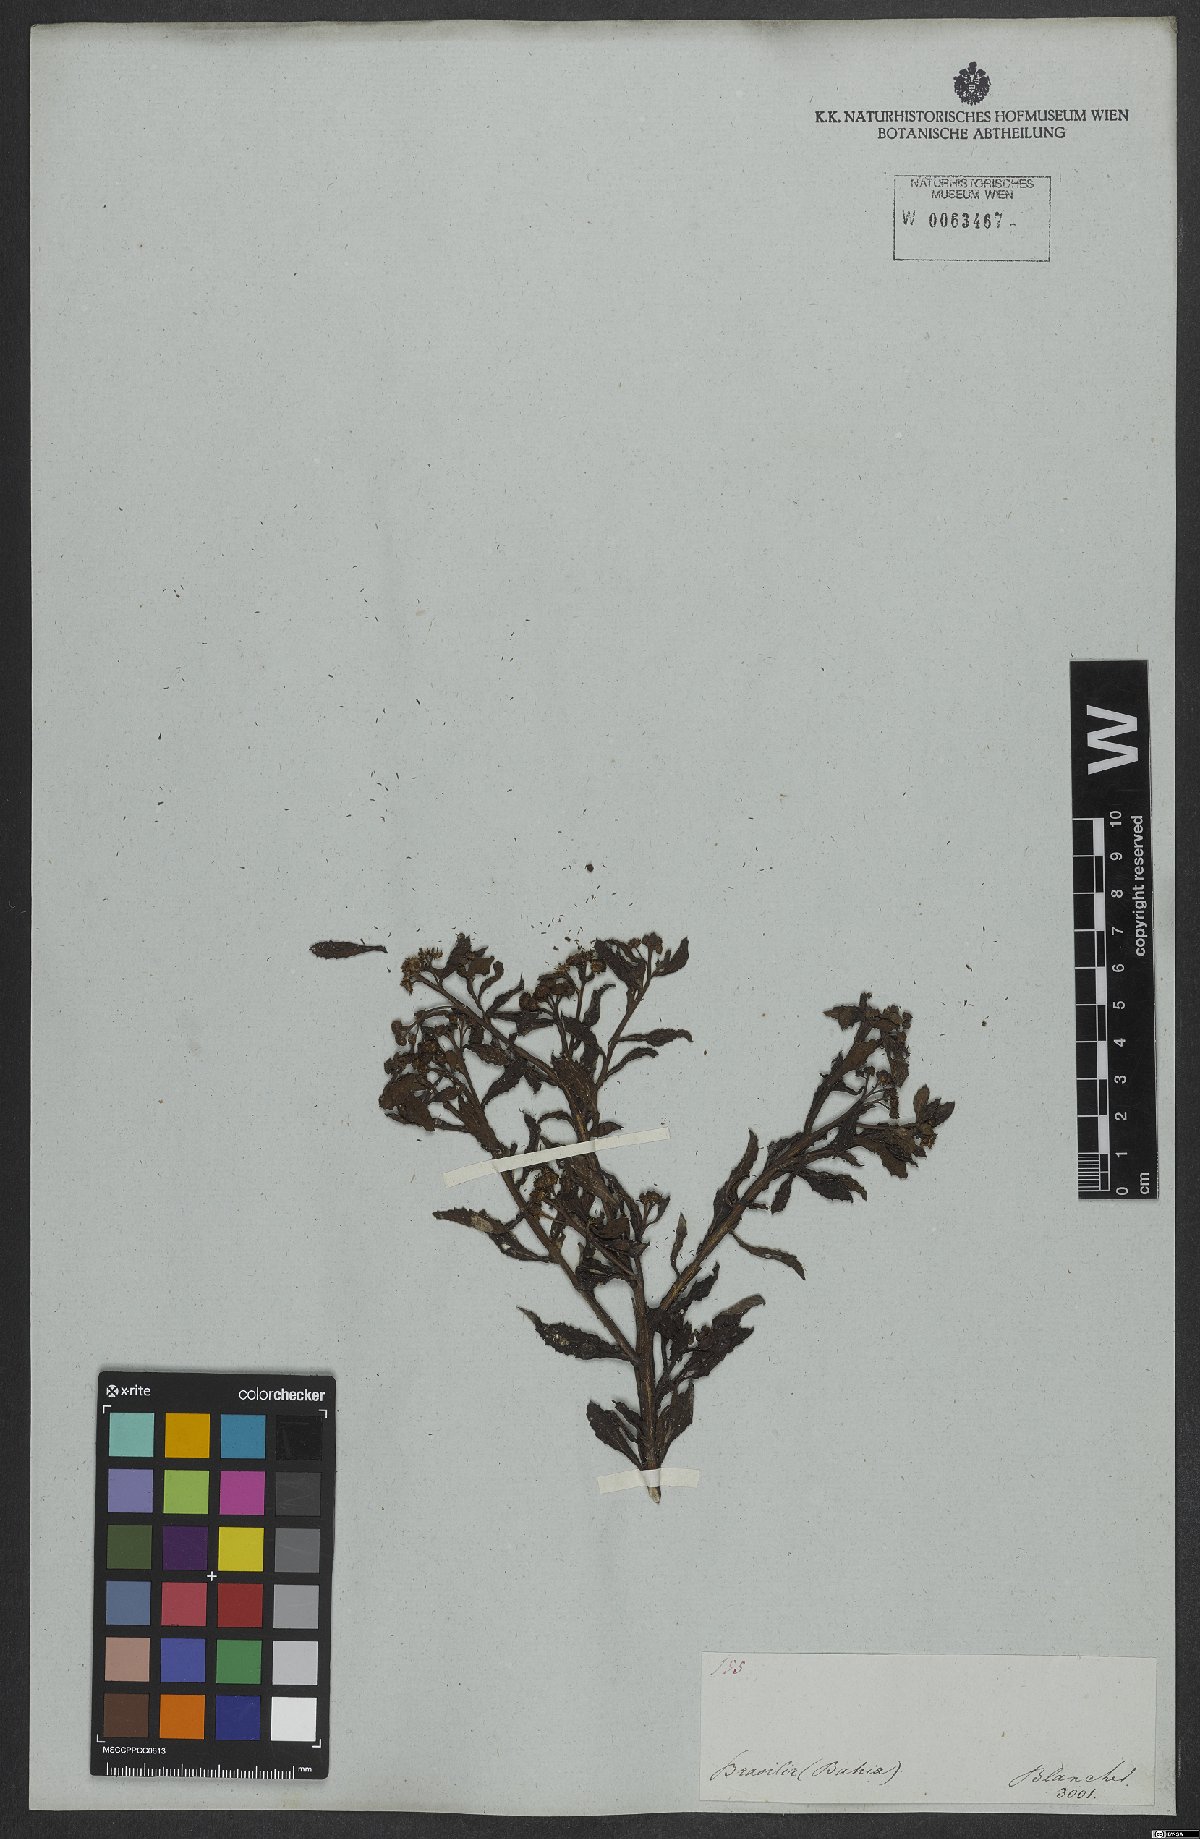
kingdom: Plantae
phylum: Tracheophyta
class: Magnoliopsida
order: Asterales
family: Asteraceae
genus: Pluchea
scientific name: Pluchea sagittalis
